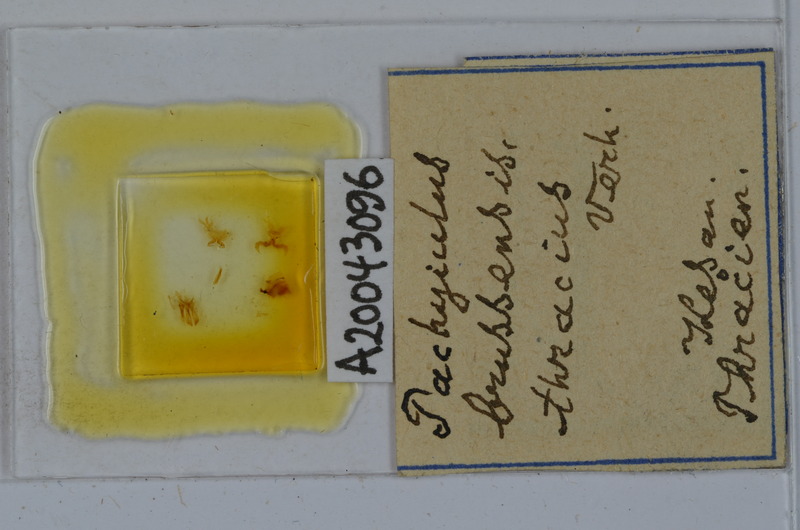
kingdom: Animalia
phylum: Arthropoda
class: Diplopoda
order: Julida
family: Julidae
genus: Pachyiulus
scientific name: Pachyiulus brussensis
